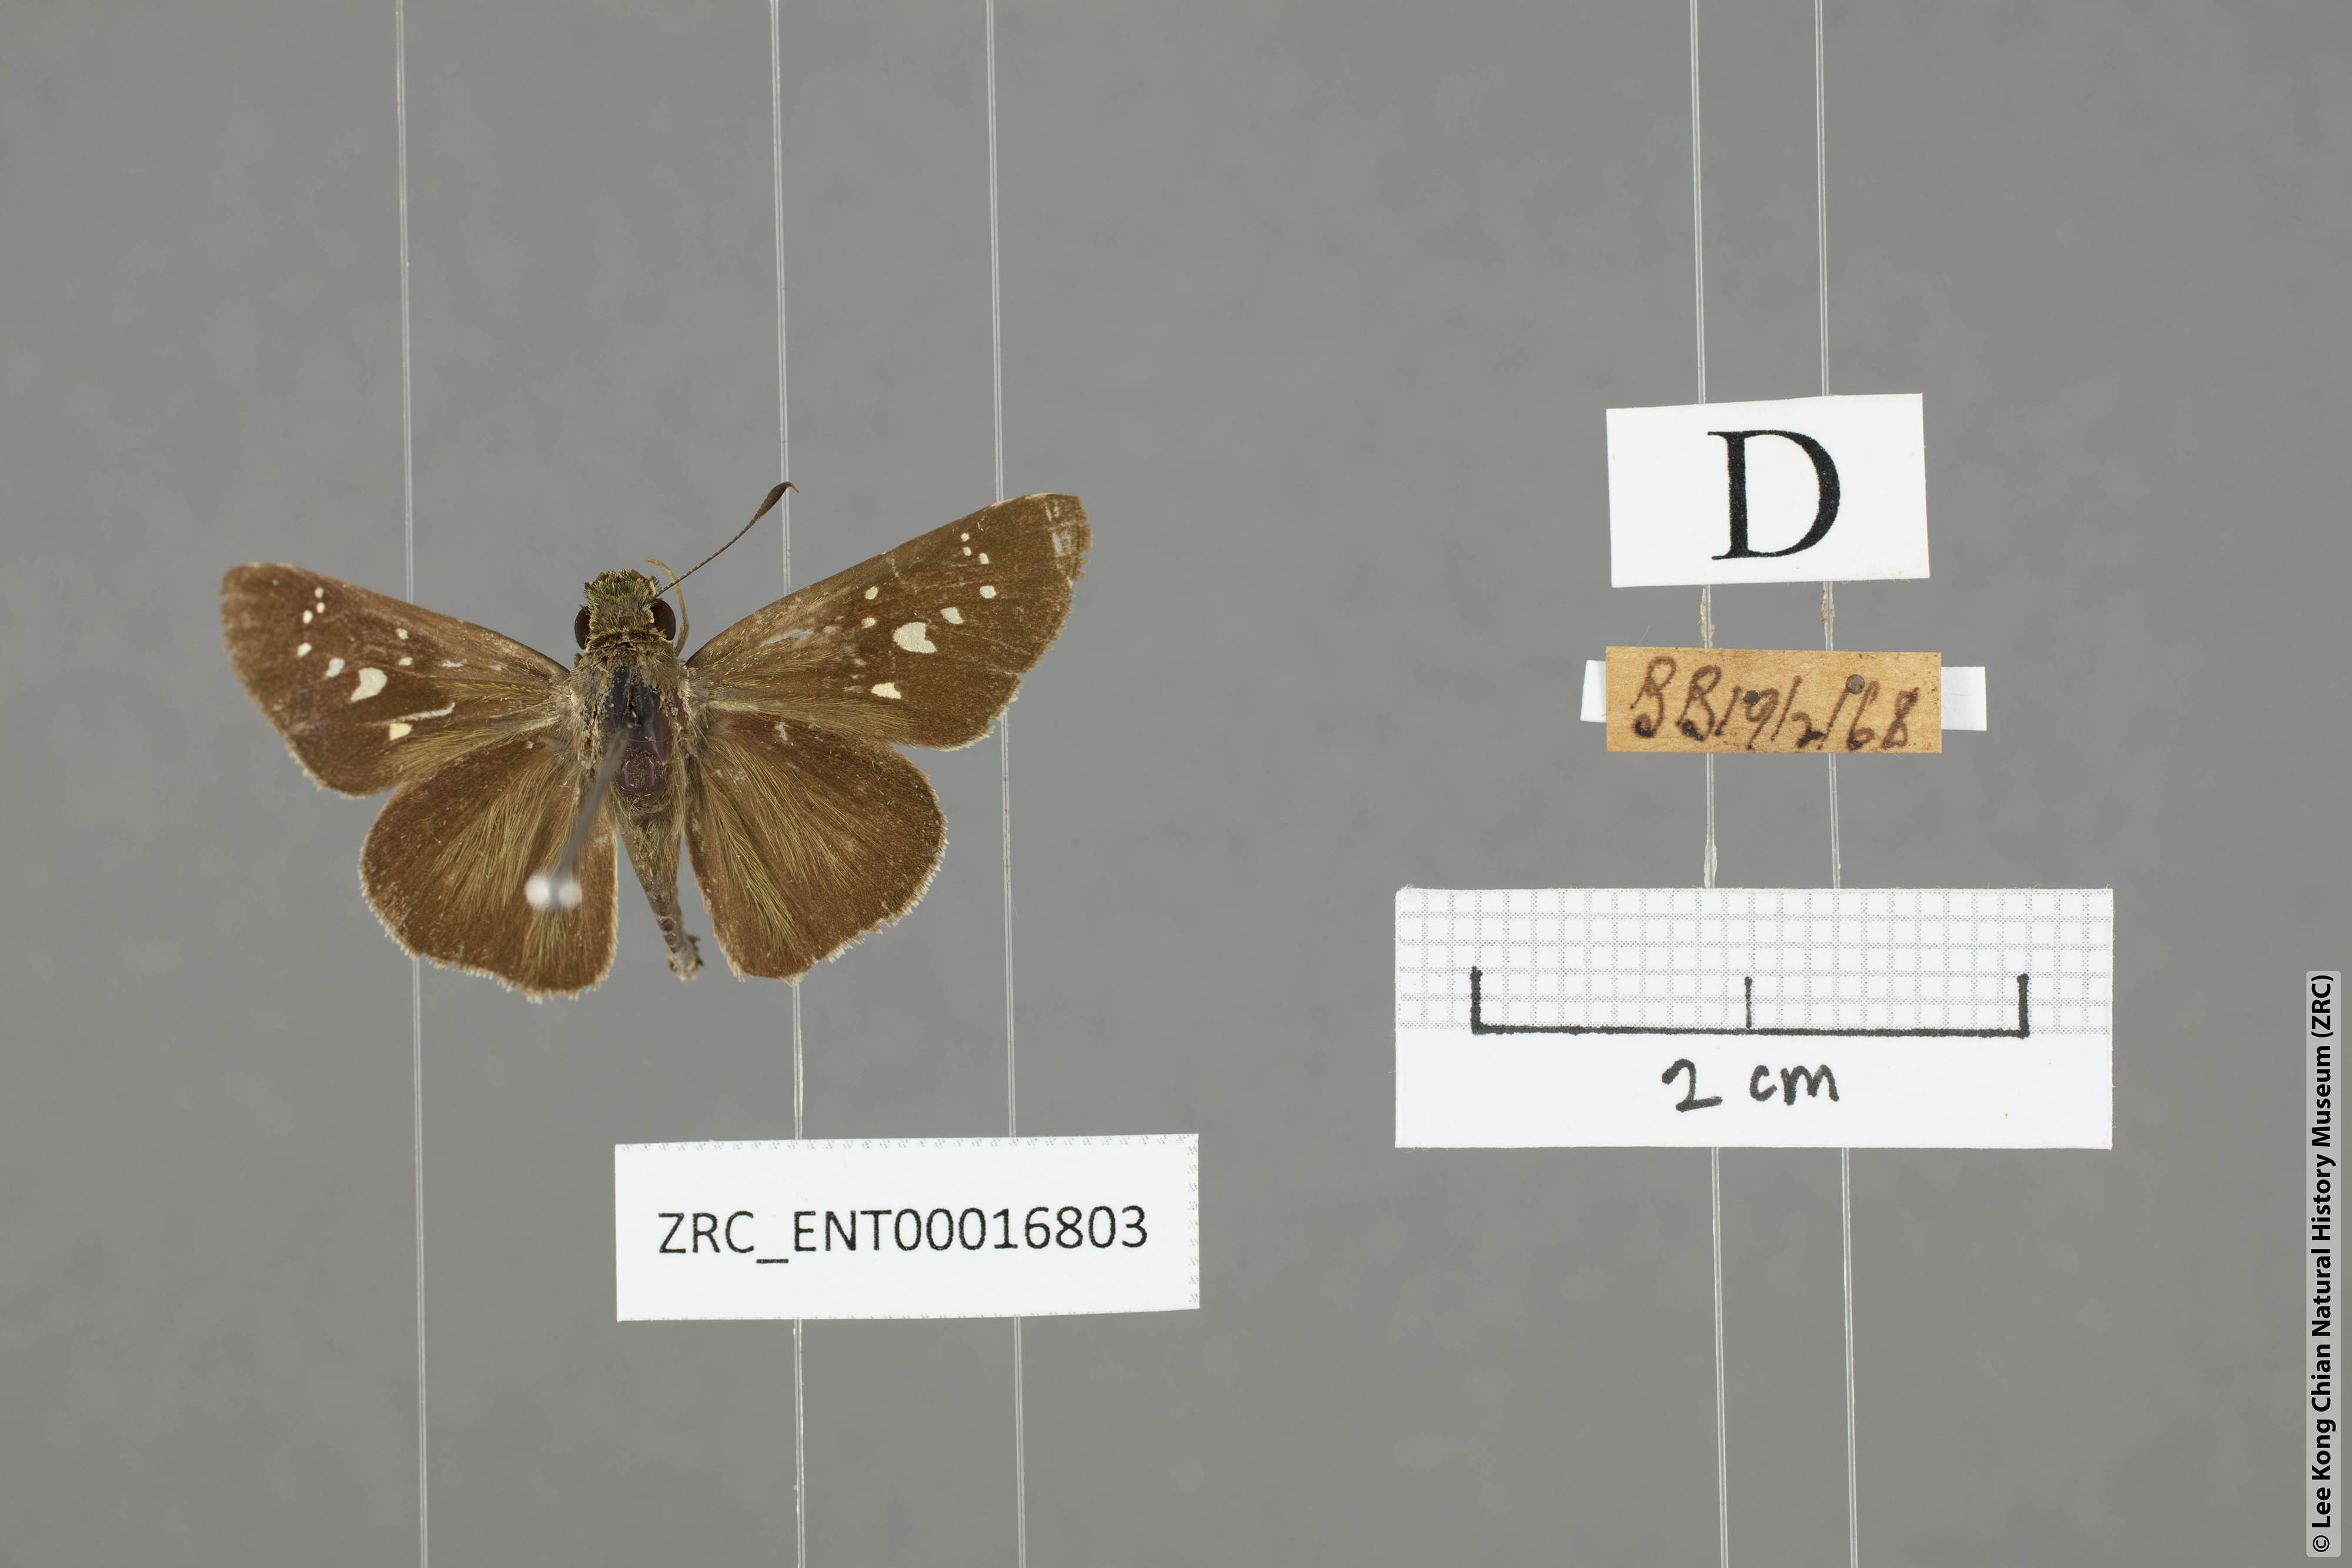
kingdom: Animalia
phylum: Arthropoda
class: Insecta
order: Lepidoptera
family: Hesperiidae
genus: Borbo
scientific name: Borbo cinnara
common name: Formosan swift
